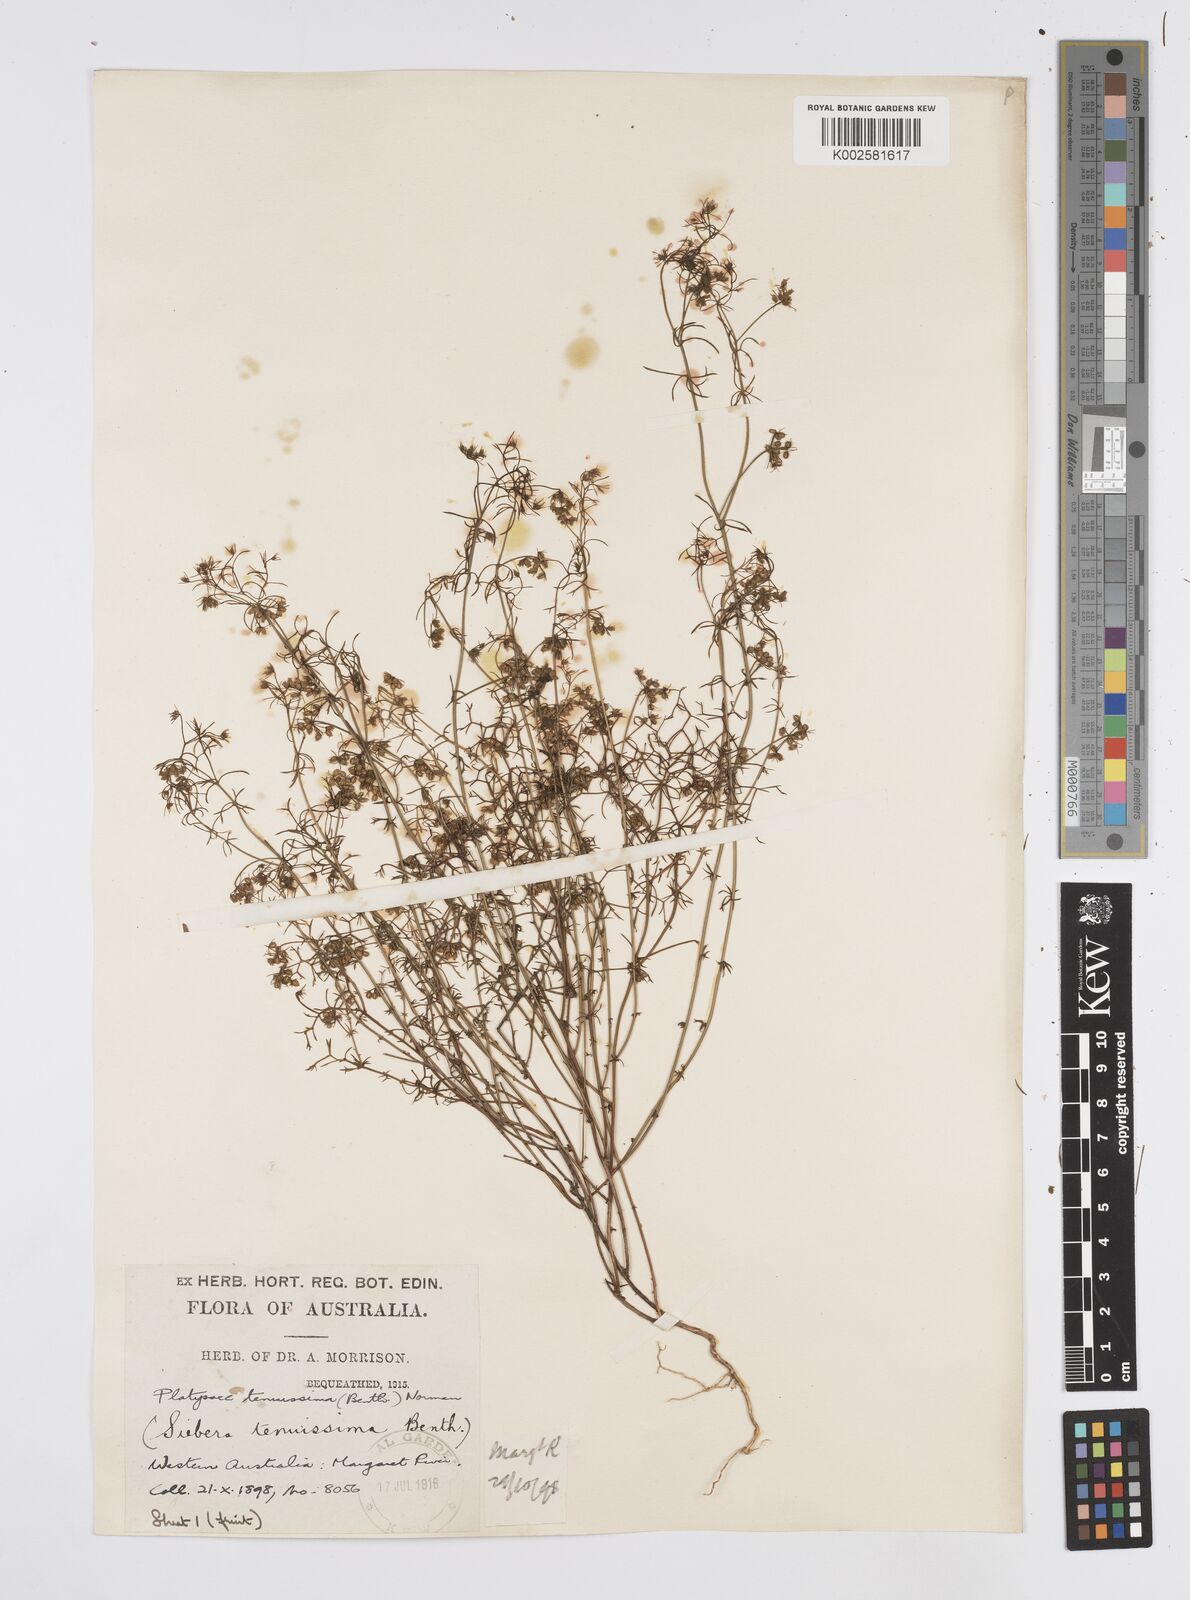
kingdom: Plantae
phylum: Tracheophyta
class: Magnoliopsida
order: Apiales
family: Apiaceae
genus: Platysace
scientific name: Platysace tenuissima
